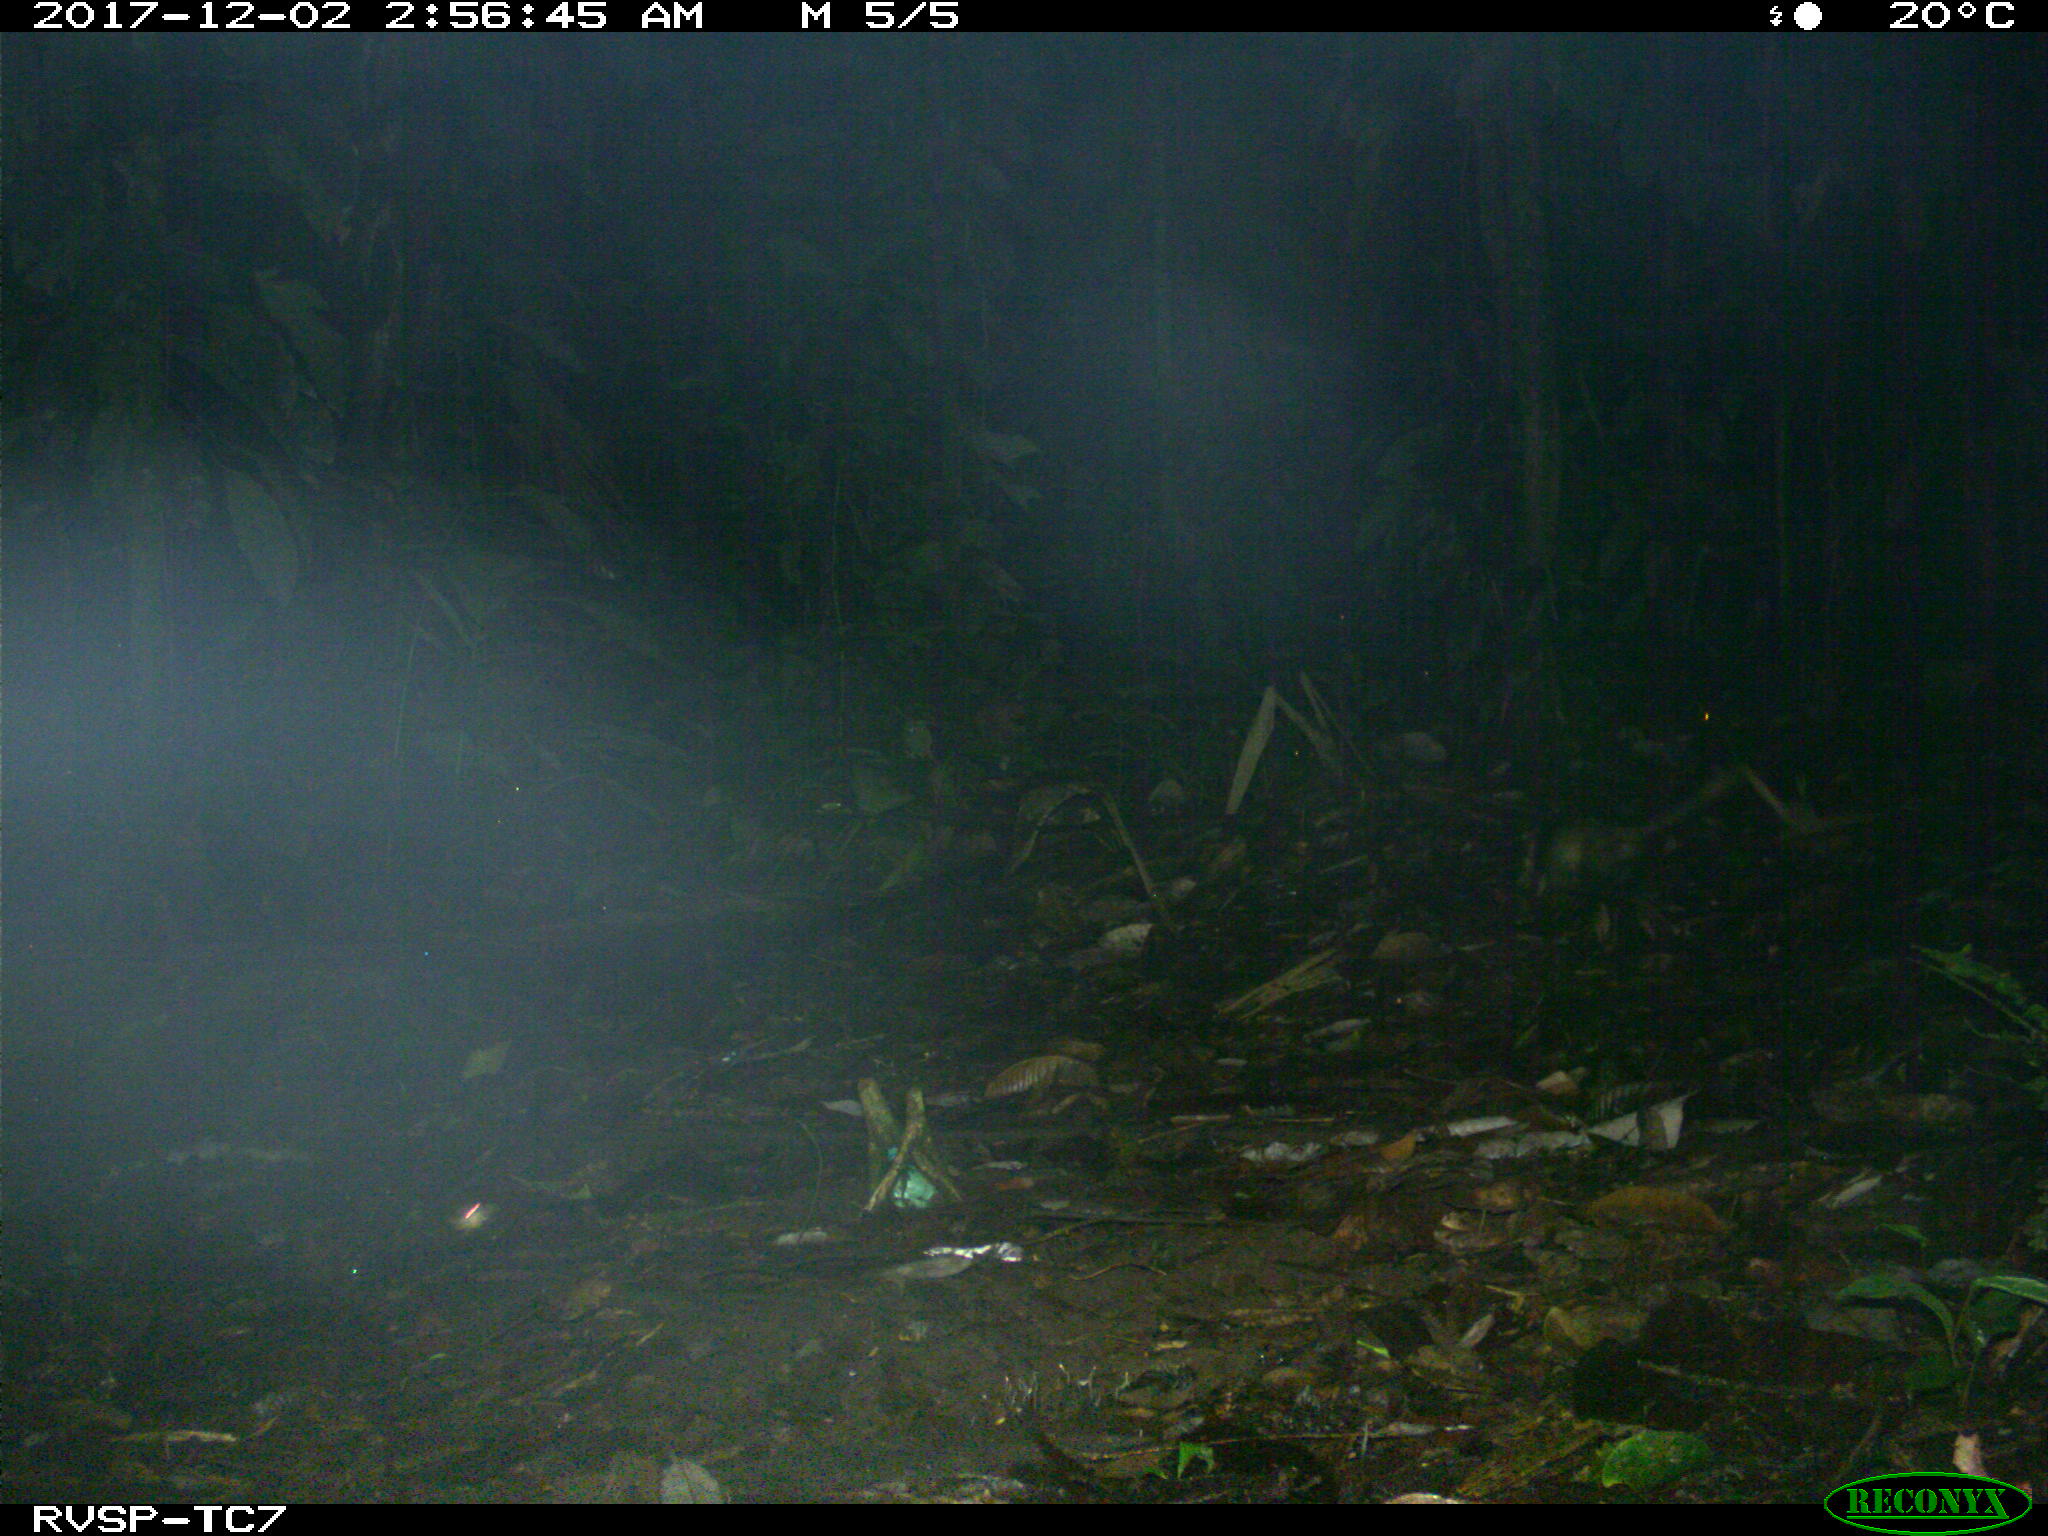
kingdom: Animalia
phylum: Chordata
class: Mammalia
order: Didelphimorphia
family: Didelphidae
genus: Didelphis
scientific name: Didelphis marsupialis
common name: Common opossum
